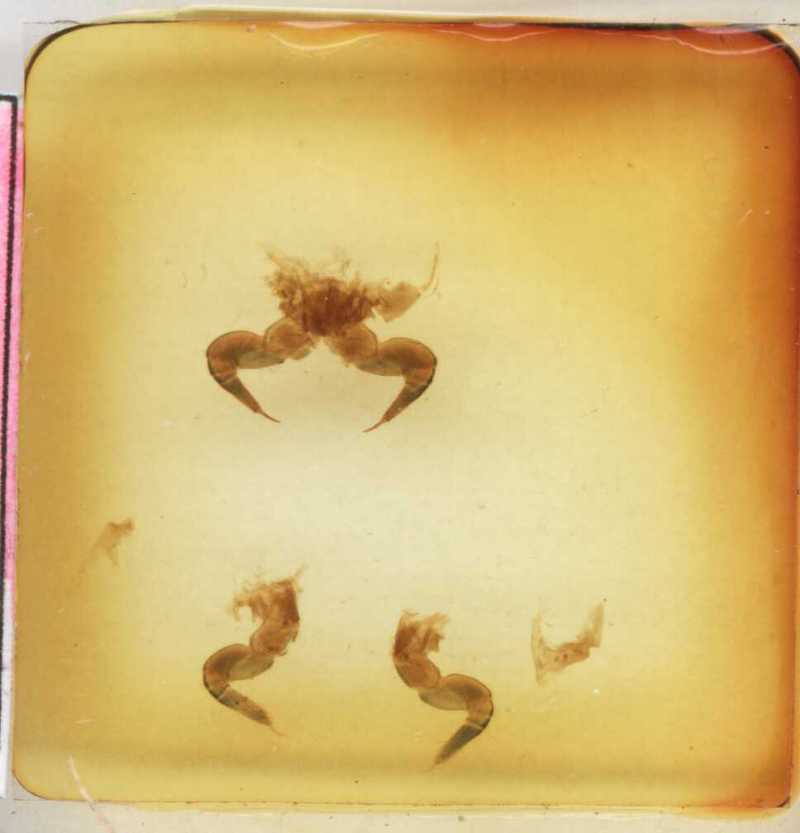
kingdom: Animalia
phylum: Arthropoda
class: Diplopoda
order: Sphaerotheriida
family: Arthrosphaeridae
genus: Arthrosphaera
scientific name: Arthrosphaera indica
